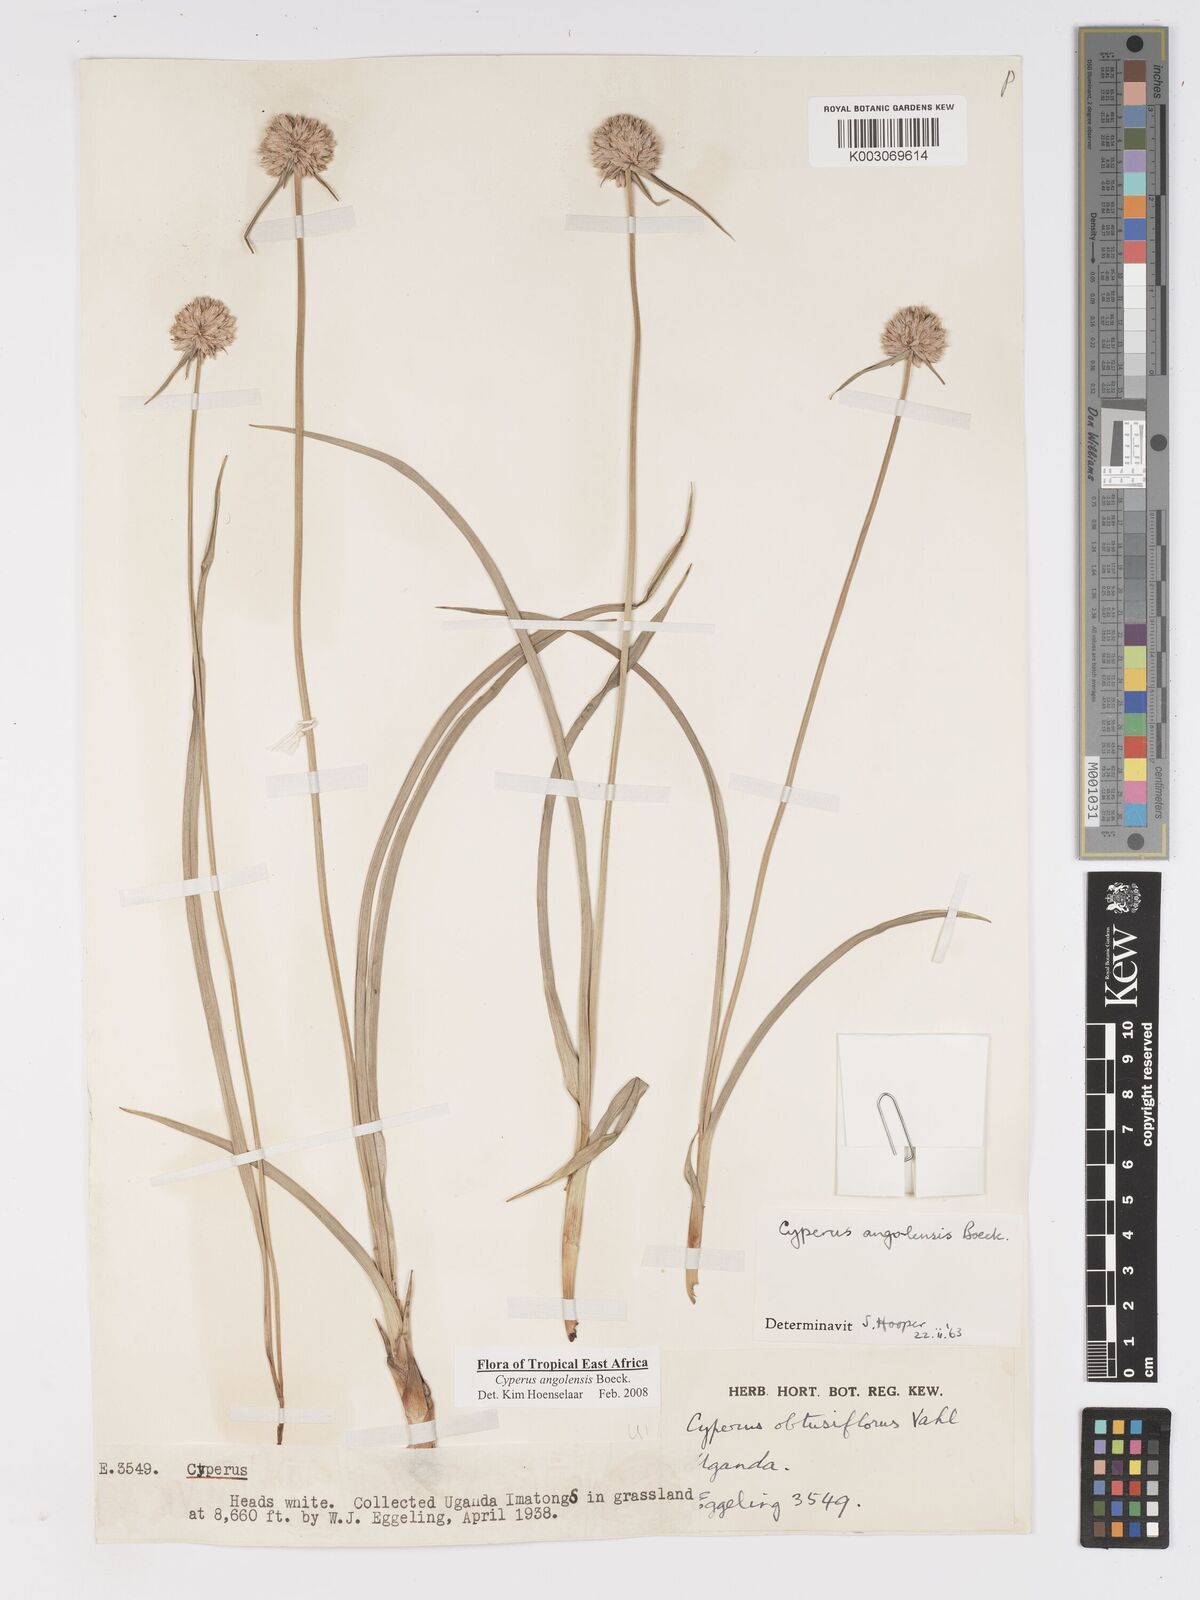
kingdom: Plantae
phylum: Tracheophyta
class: Liliopsida
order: Poales
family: Cyperaceae
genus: Cyperus
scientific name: Cyperus angolensis
